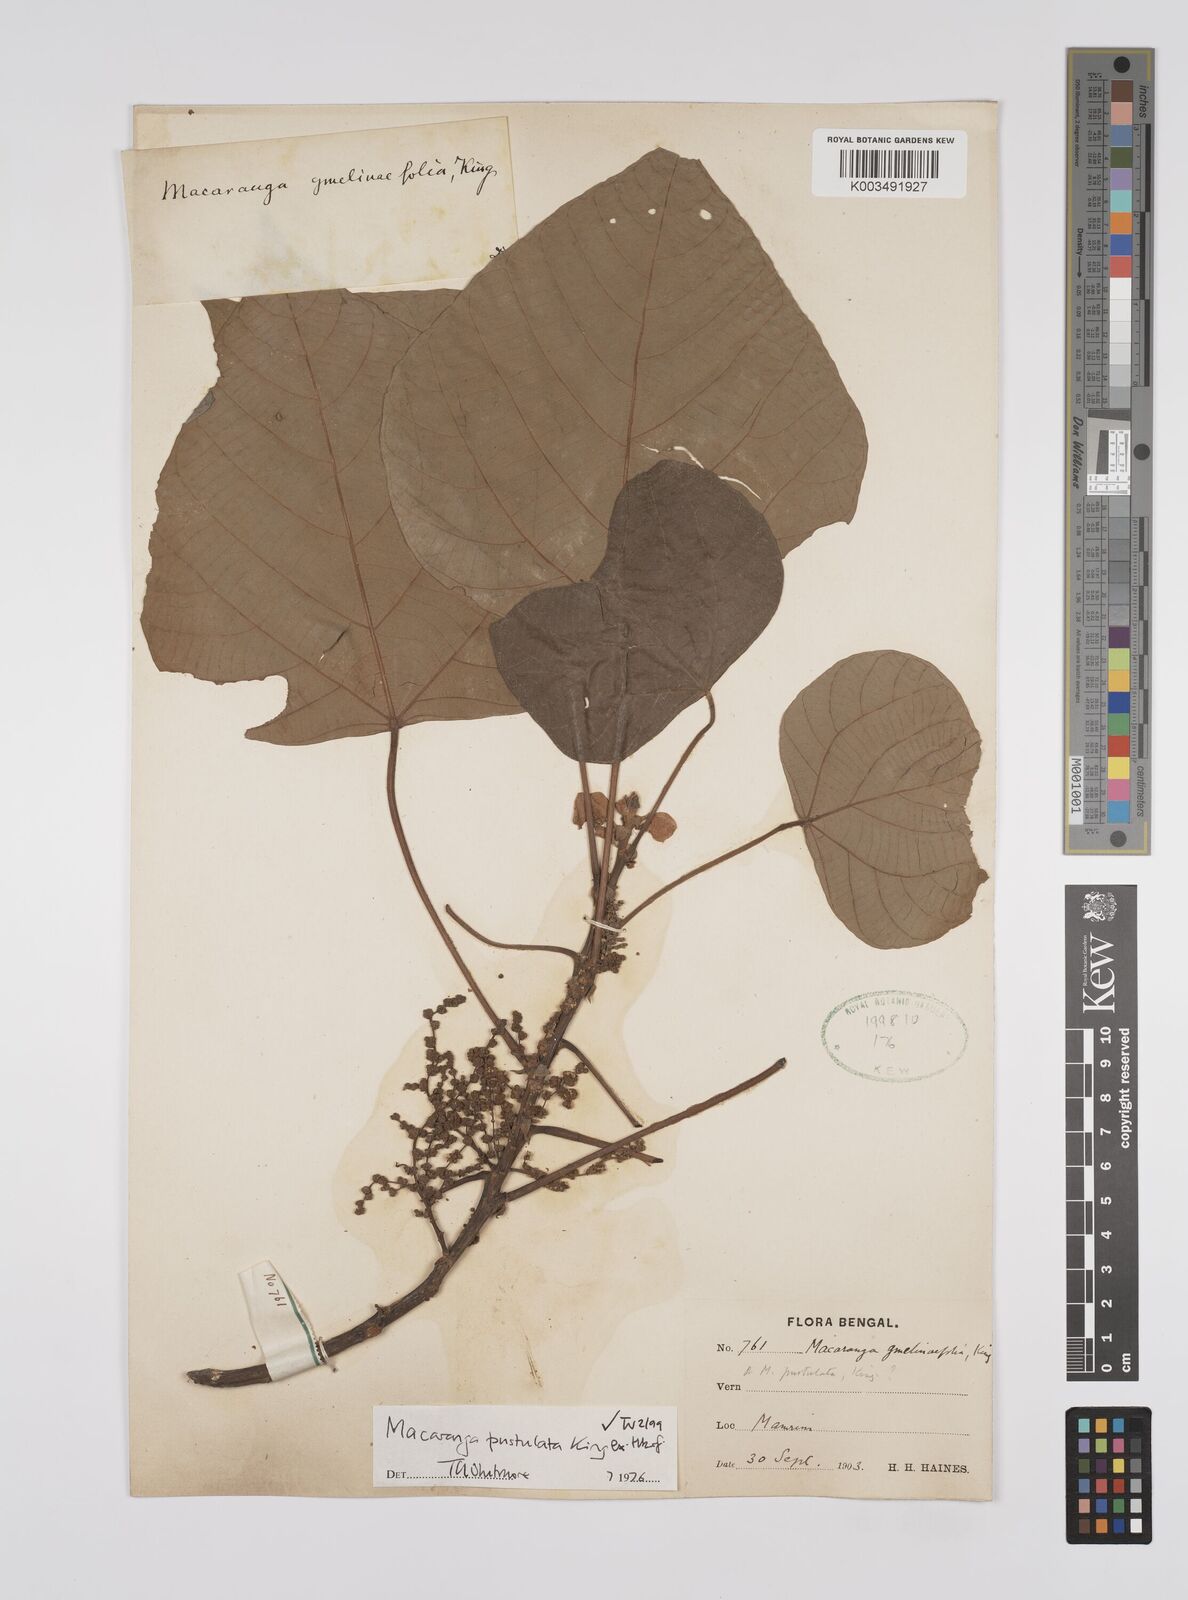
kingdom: Plantae
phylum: Tracheophyta
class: Magnoliopsida
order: Malpighiales
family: Euphorbiaceae
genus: Macaranga
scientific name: Macaranga denticulata
